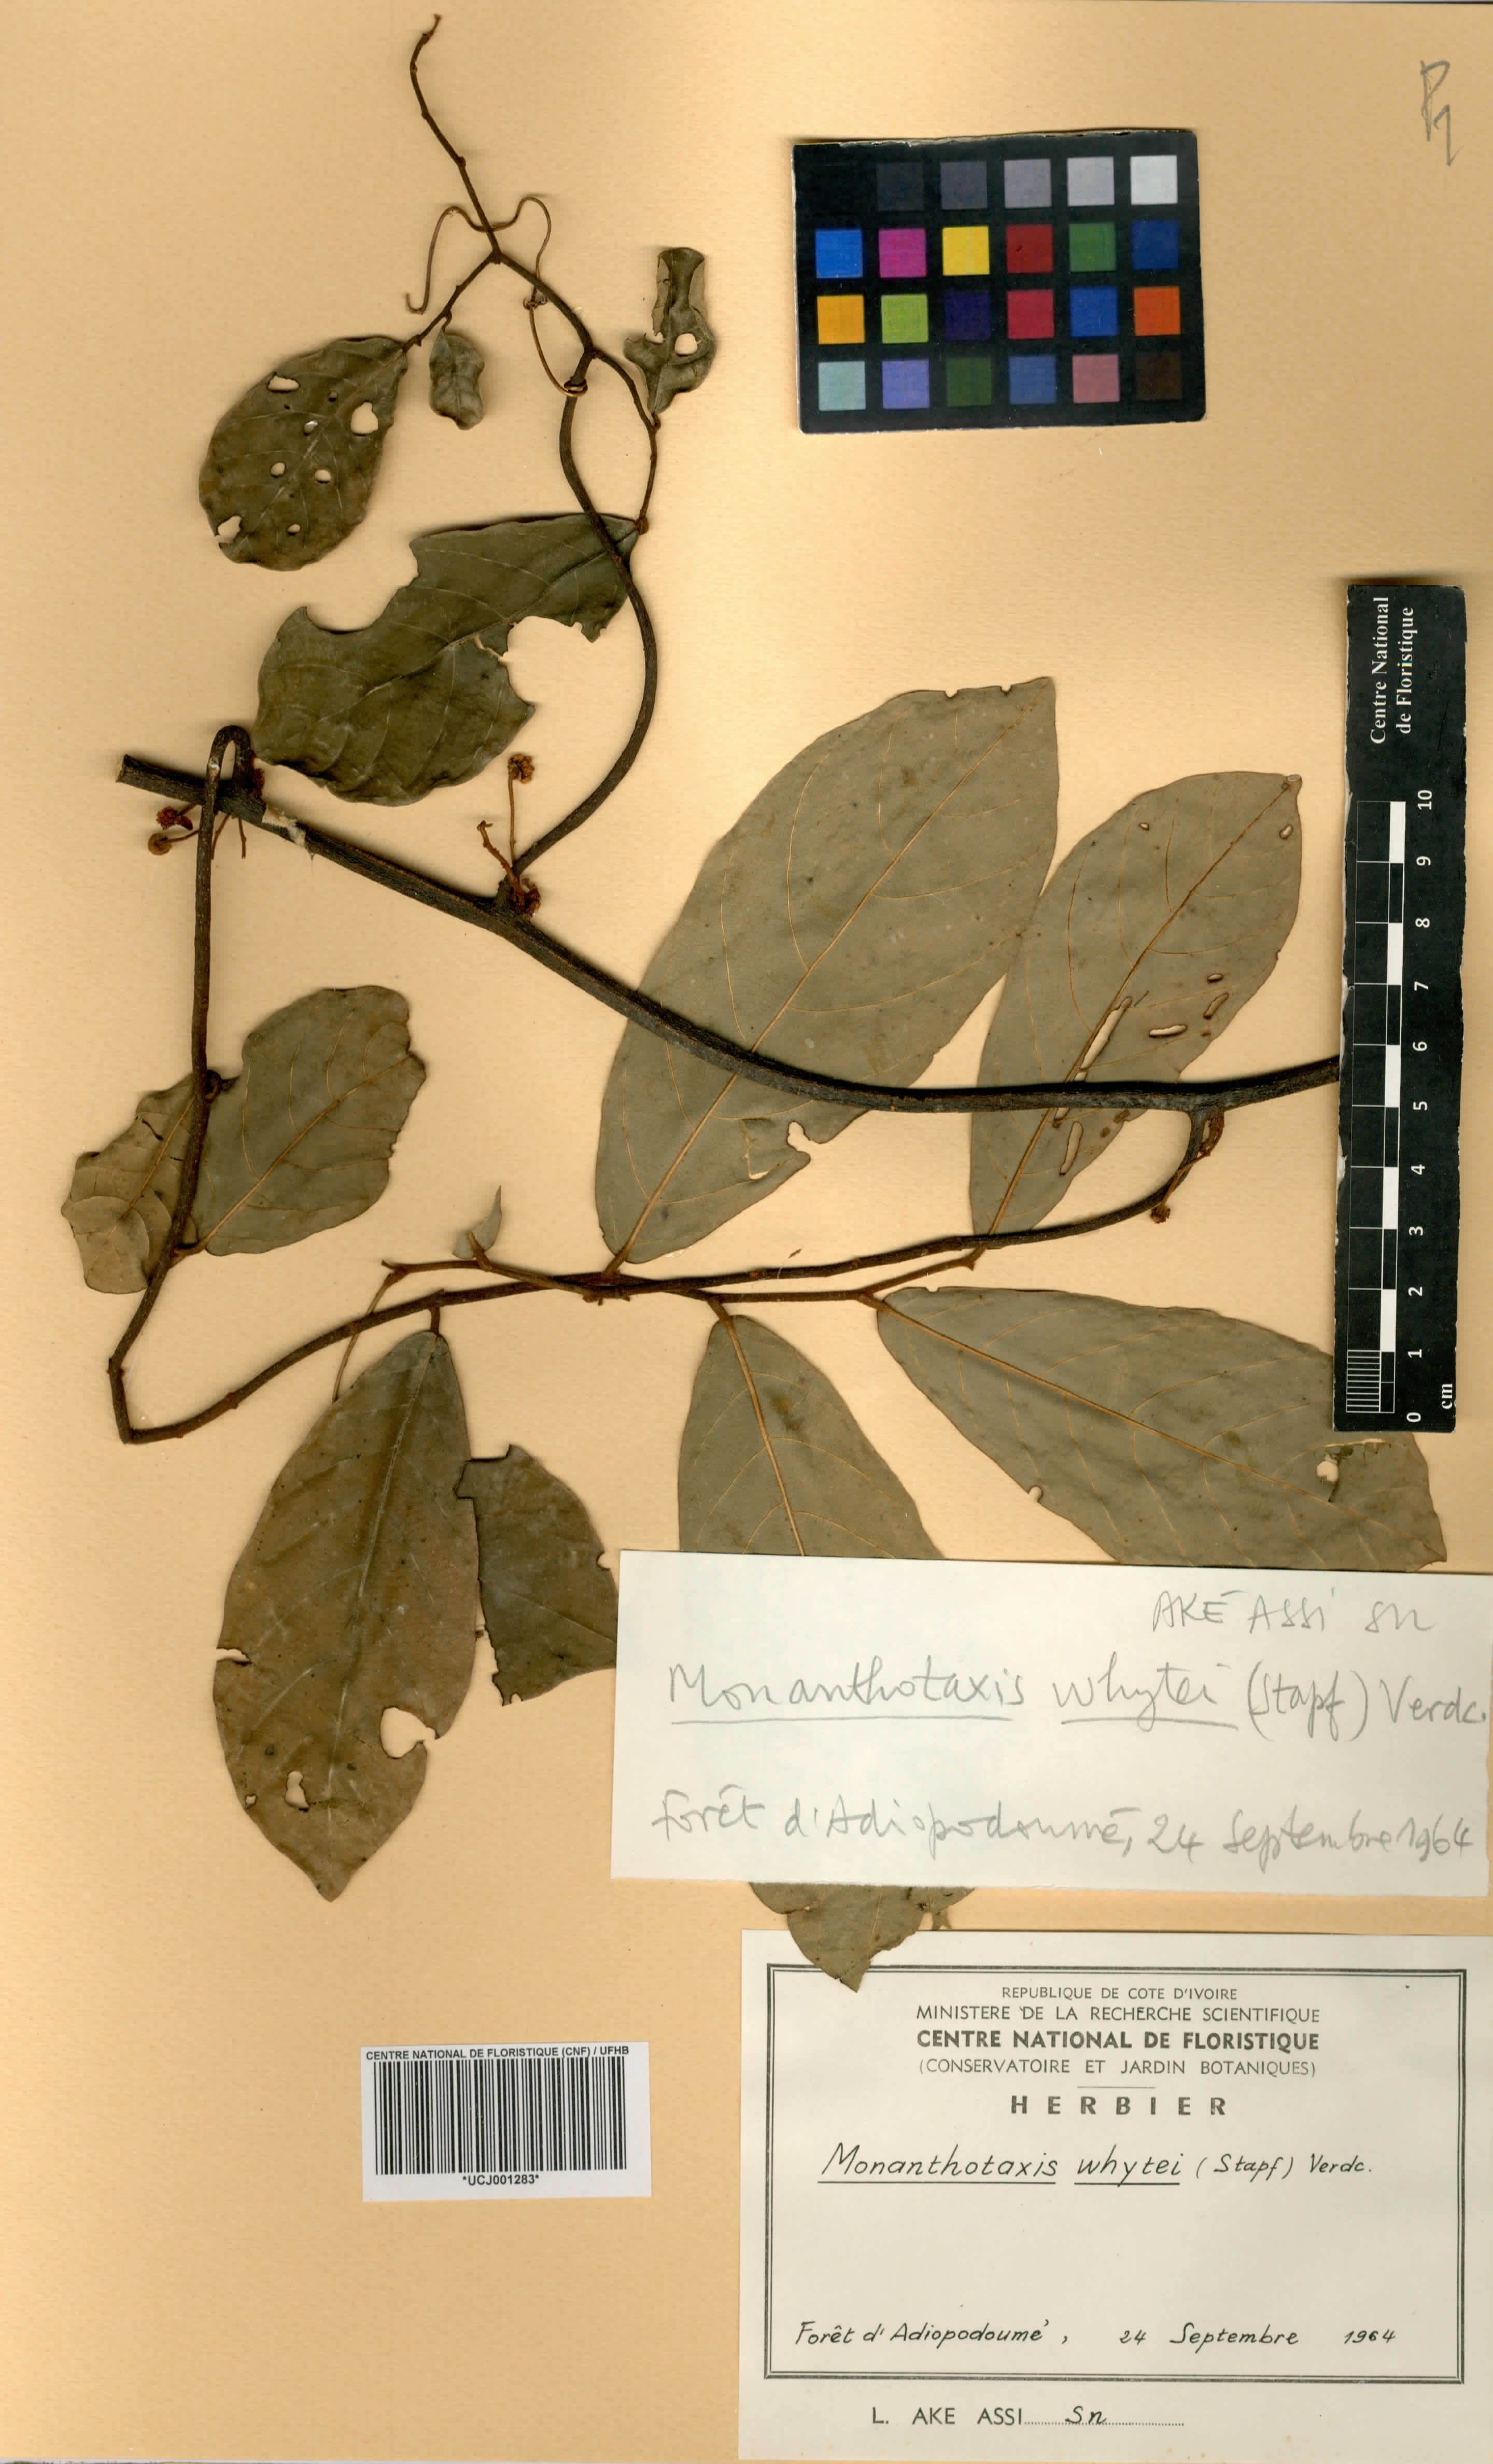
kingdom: Plantae
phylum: Tracheophyta
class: Magnoliopsida
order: Magnoliales
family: Annonaceae
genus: Monanthotaxis
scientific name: Monanthotaxis whytei
